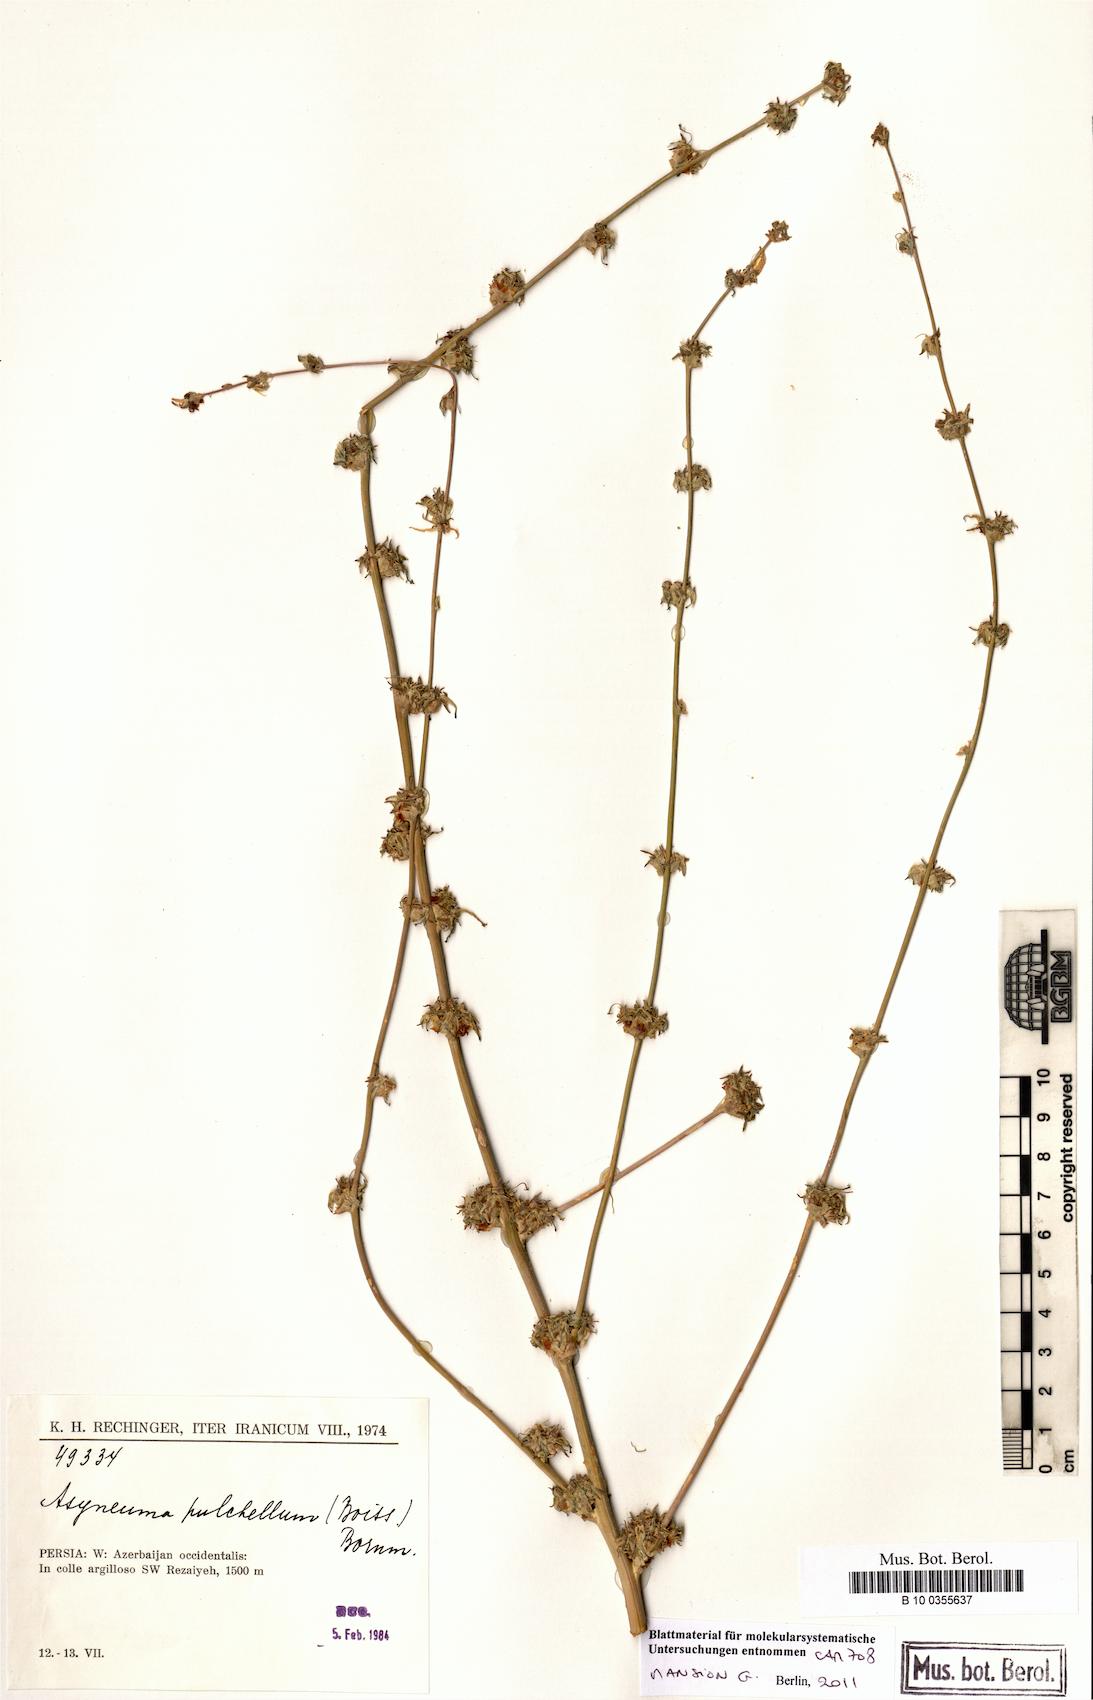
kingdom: Plantae
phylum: Tracheophyta
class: Magnoliopsida
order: Asterales
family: Campanulaceae
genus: Asyneuma
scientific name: Asyneuma pulchellum
